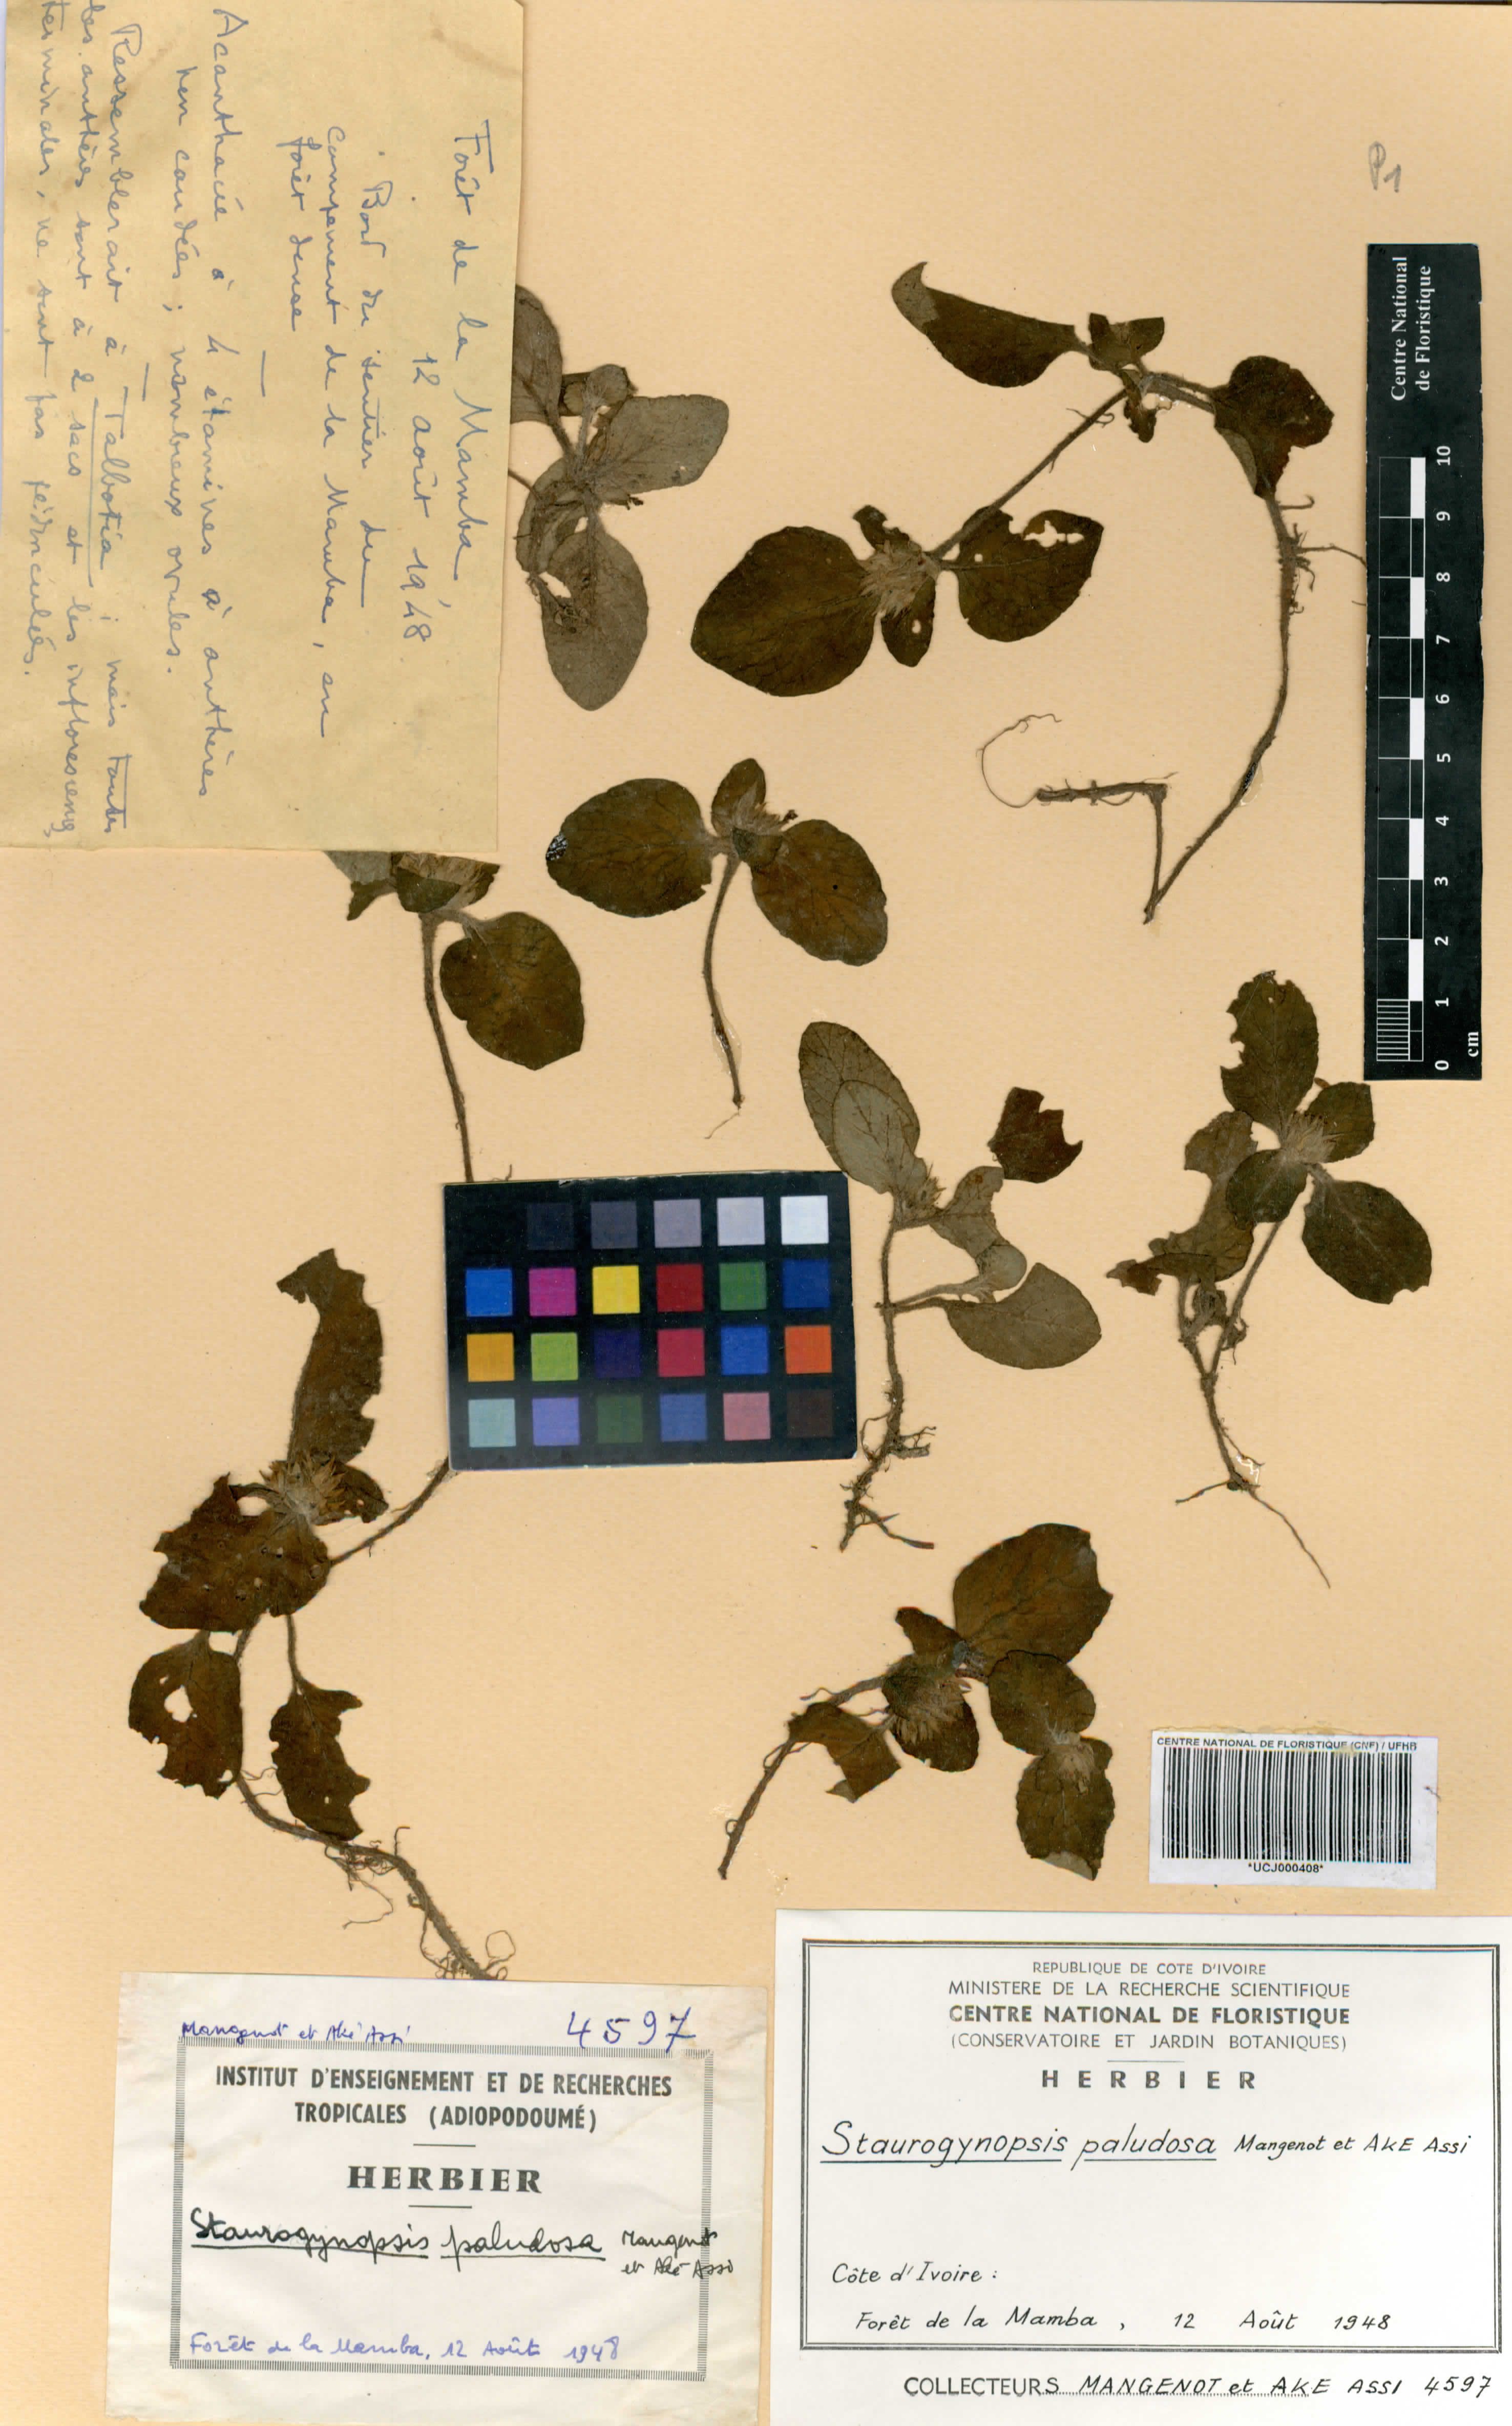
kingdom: Plantae
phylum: Tracheophyta
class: Magnoliopsida
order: Lamiales
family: Acanthaceae
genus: Staurogyne
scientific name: Staurogyne capitata
